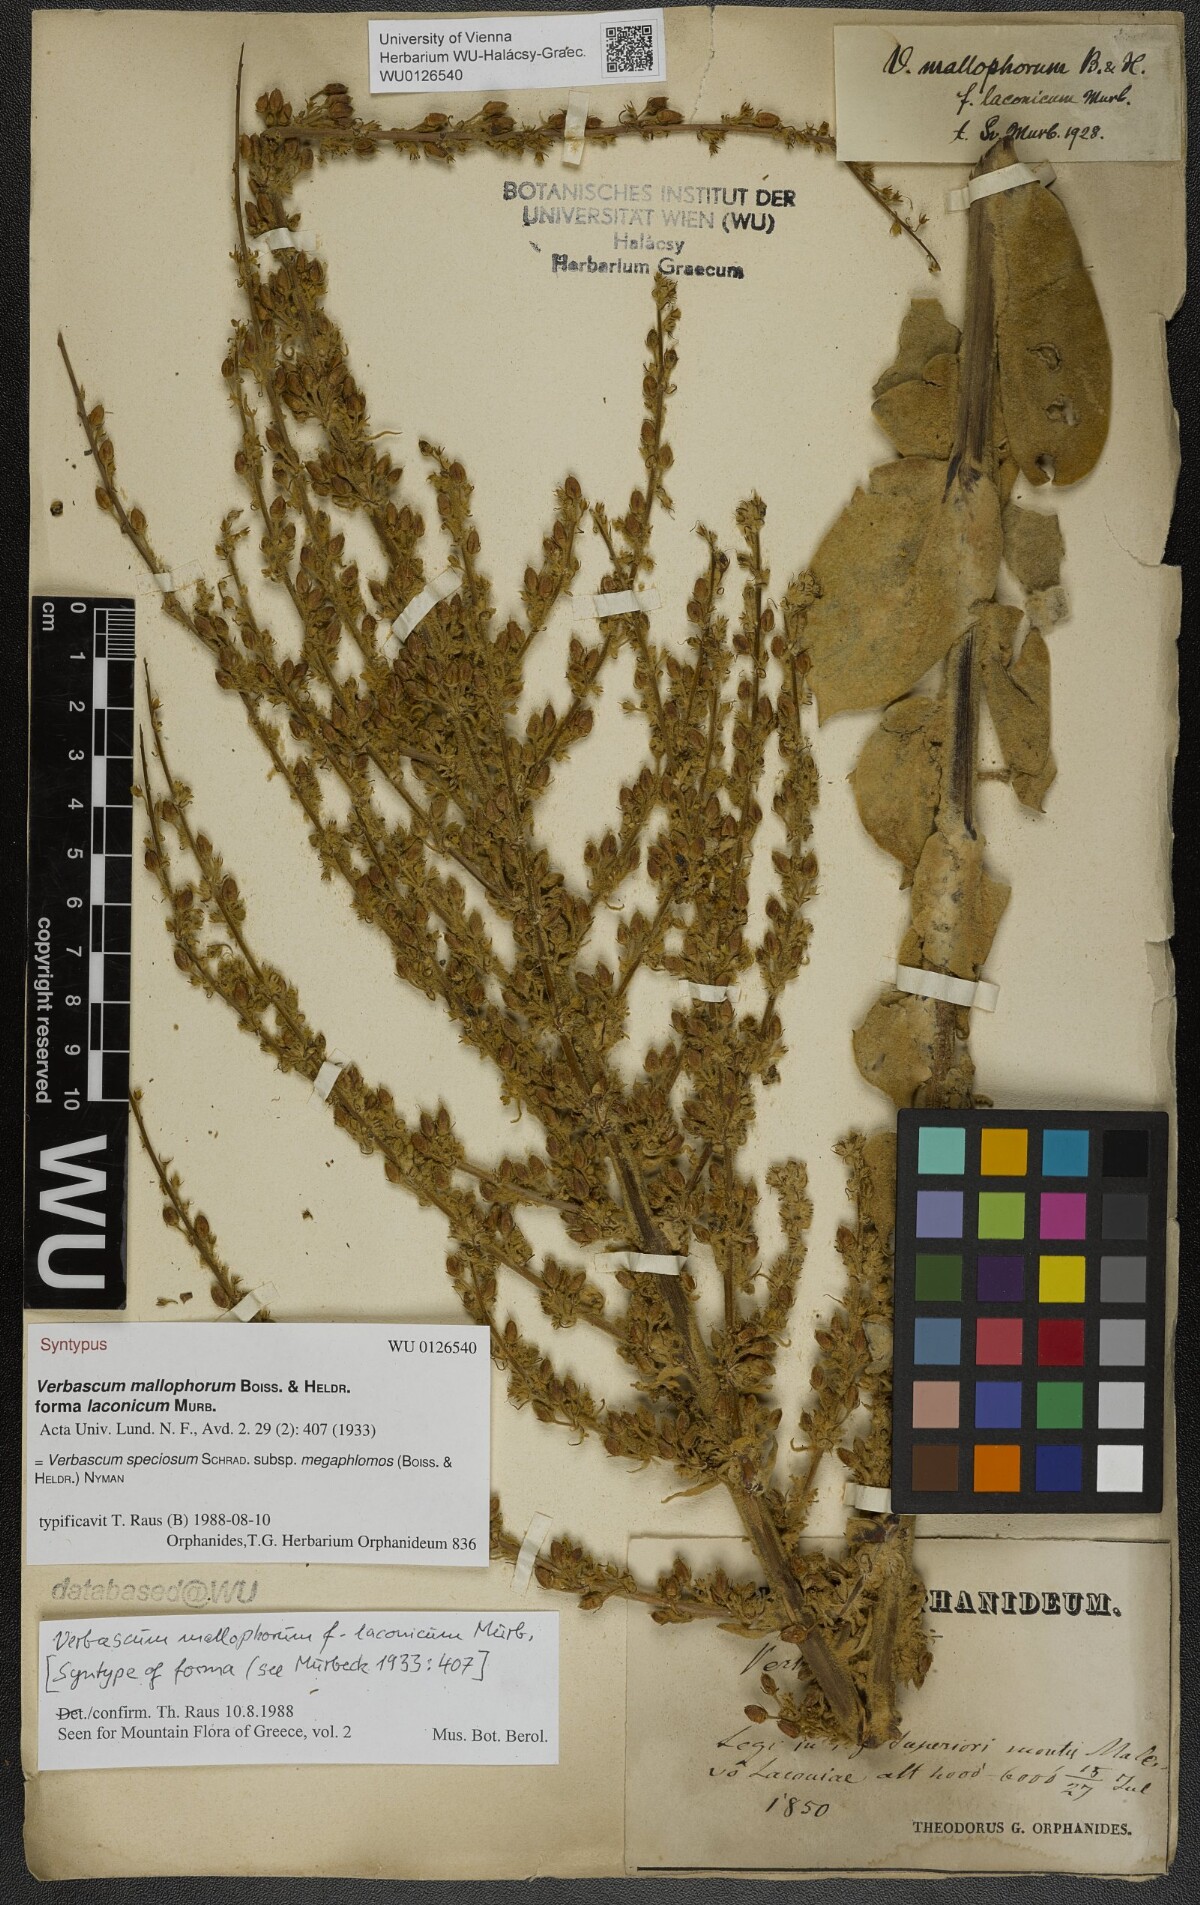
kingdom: Plantae
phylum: Tracheophyta
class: Magnoliopsida
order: Lamiales
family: Scrophulariaceae
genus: Verbascum
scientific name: Verbascum mallophorum
